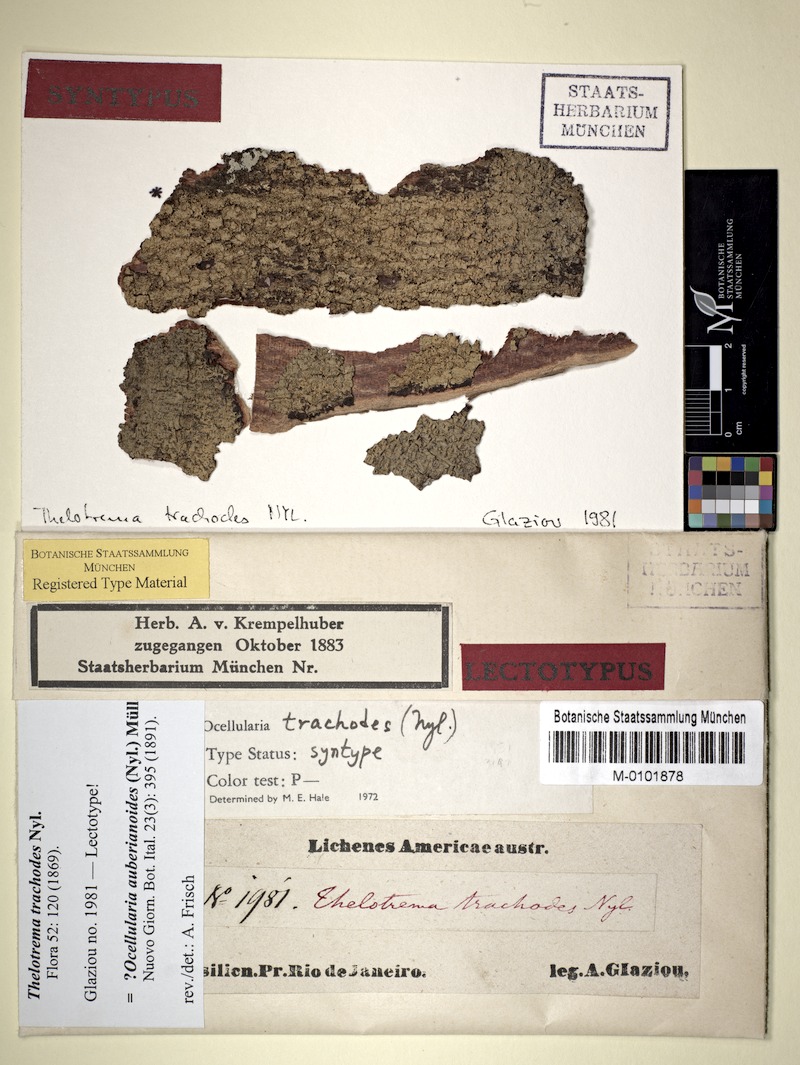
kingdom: Fungi
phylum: Ascomycota
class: Lecanoromycetes
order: Ostropales
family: Graphidaceae
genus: Ocellularia
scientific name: Ocellularia auberianoides
